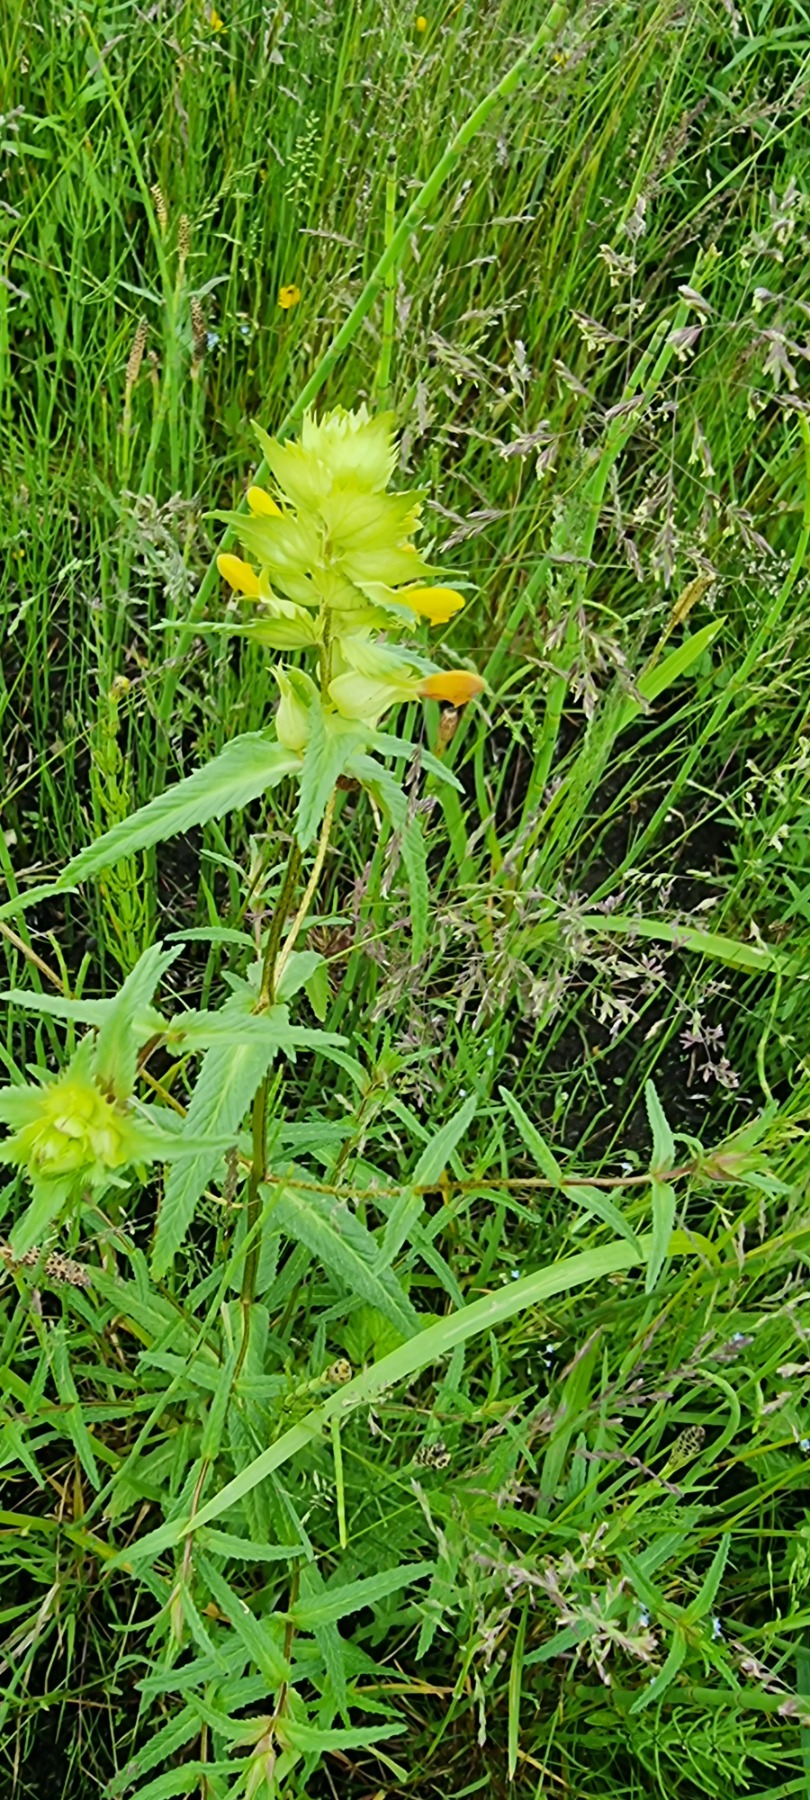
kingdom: Plantae
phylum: Tracheophyta
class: Magnoliopsida
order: Lamiales
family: Orobanchaceae
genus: Rhinanthus
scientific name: Rhinanthus
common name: Stor skjaller
